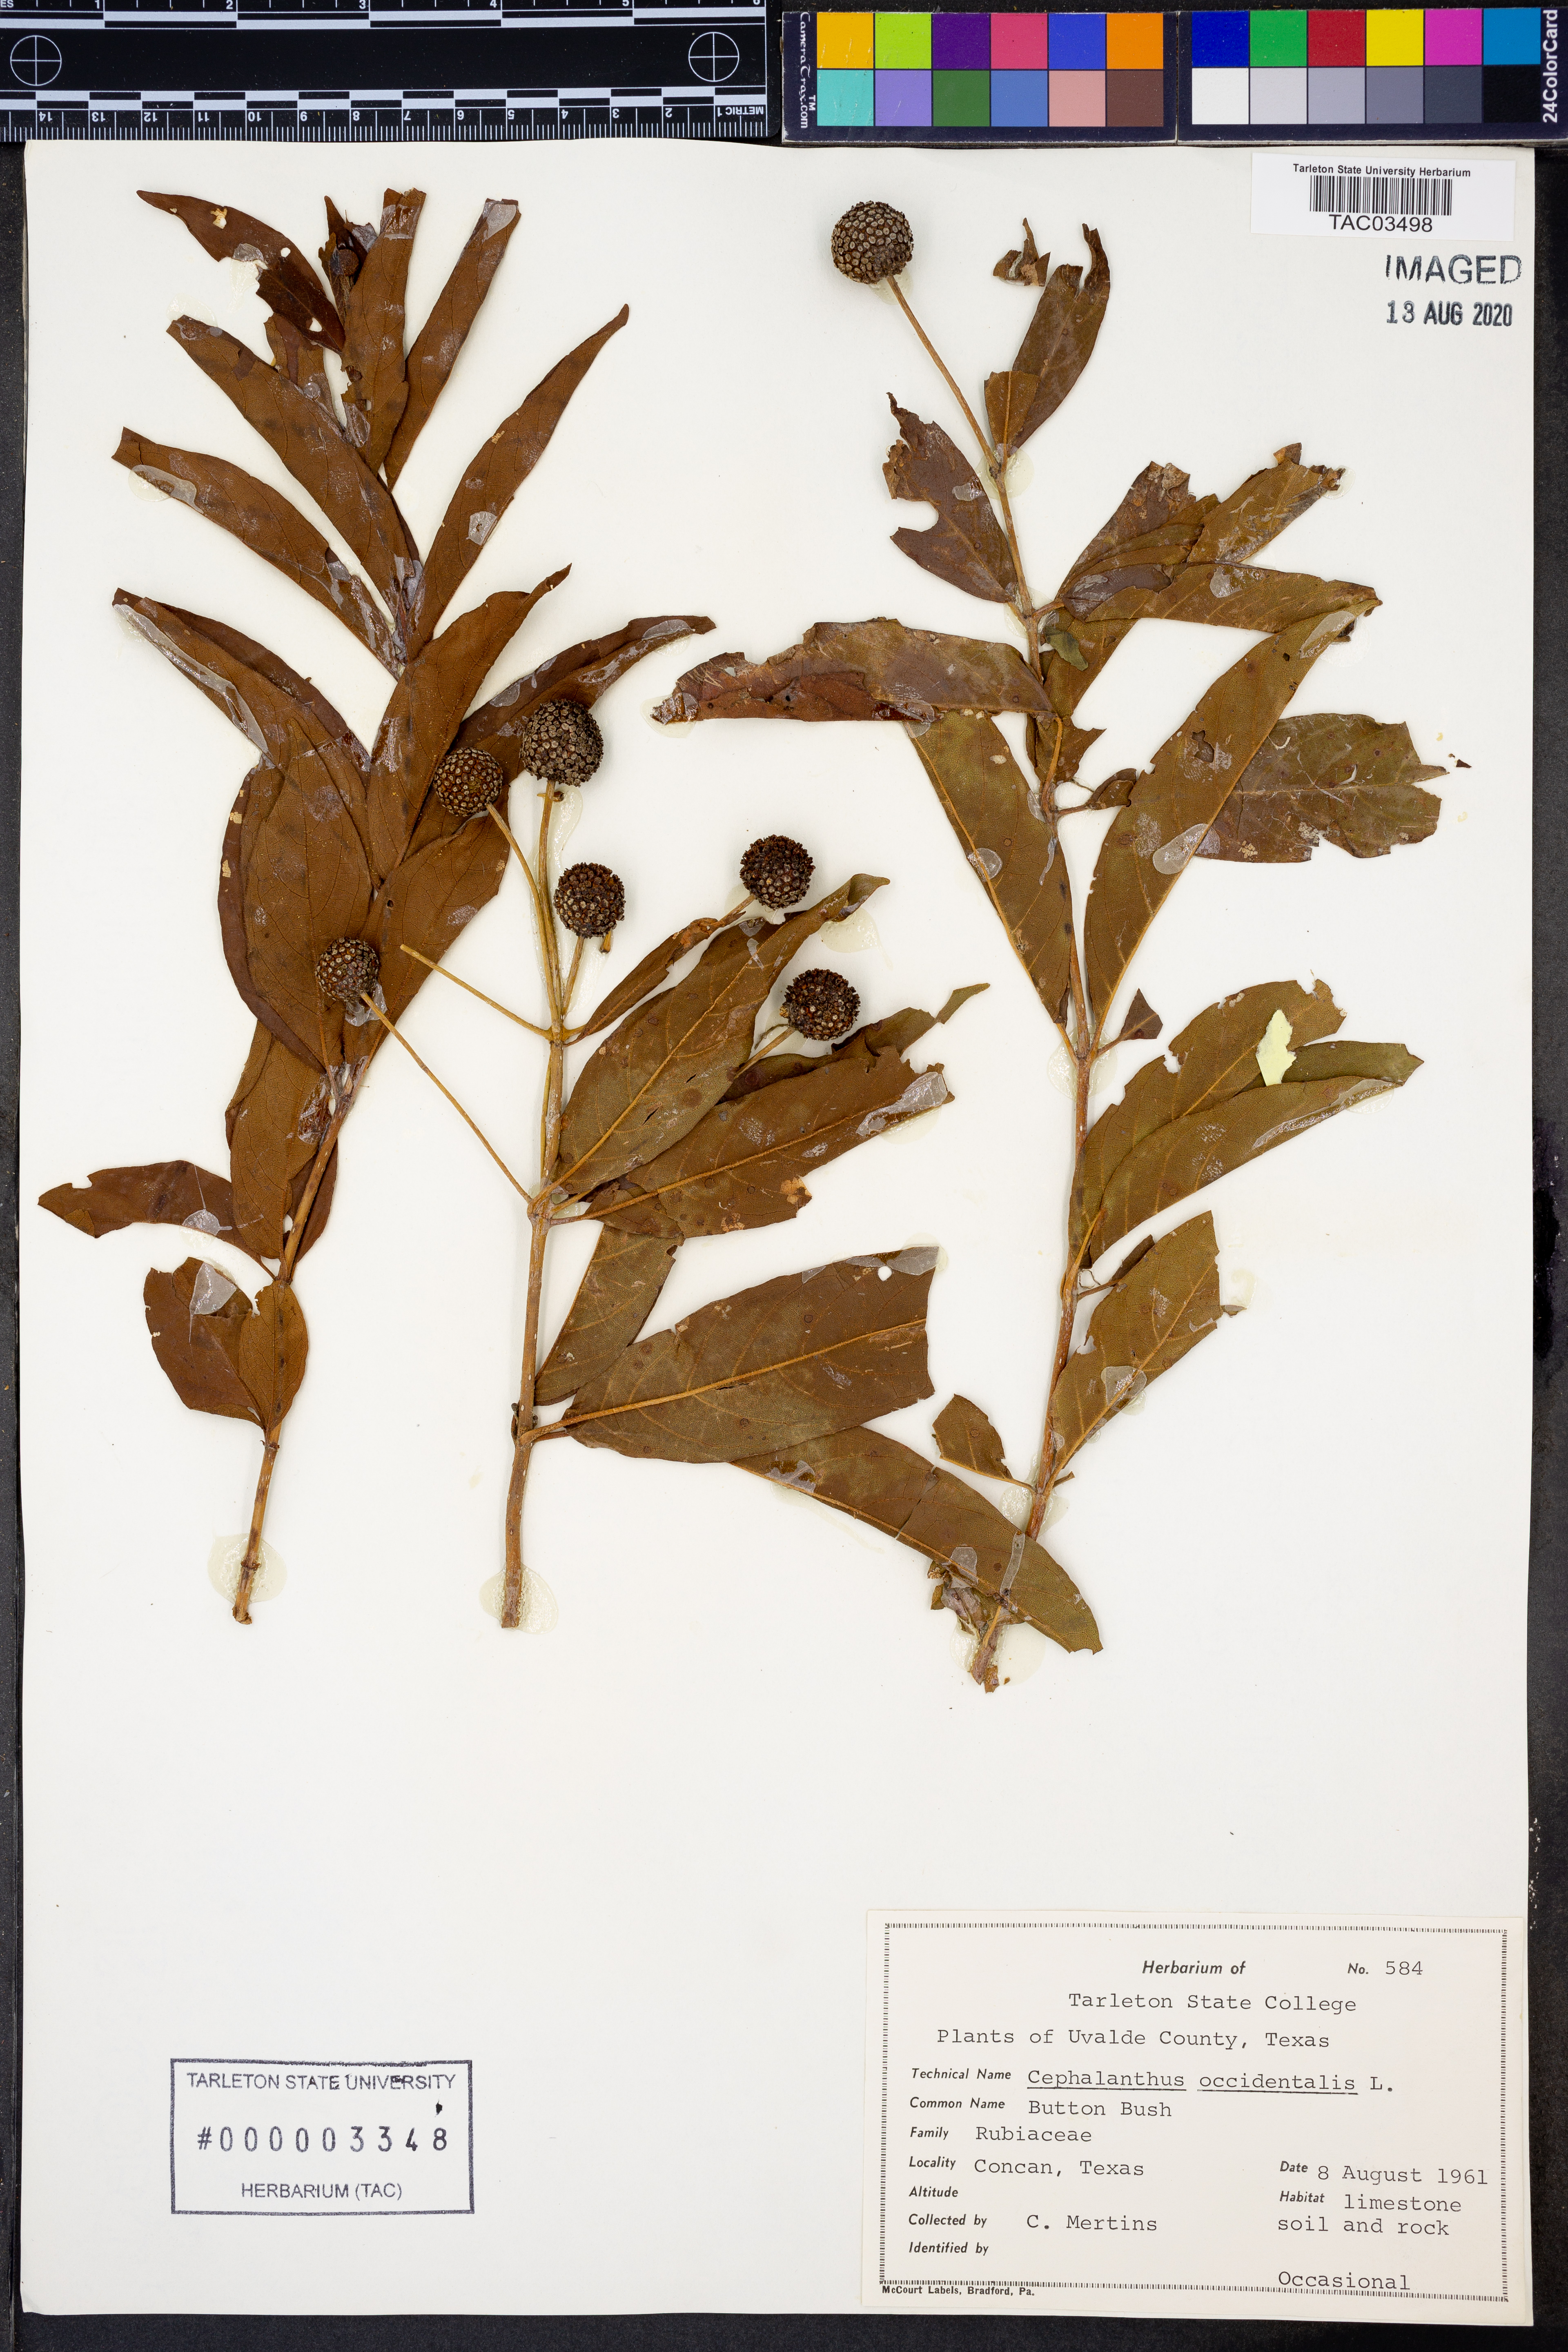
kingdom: Plantae
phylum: Tracheophyta
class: Magnoliopsida
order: Gentianales
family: Rubiaceae
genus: Cephalanthus
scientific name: Cephalanthus occidentalis
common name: Button-willow
